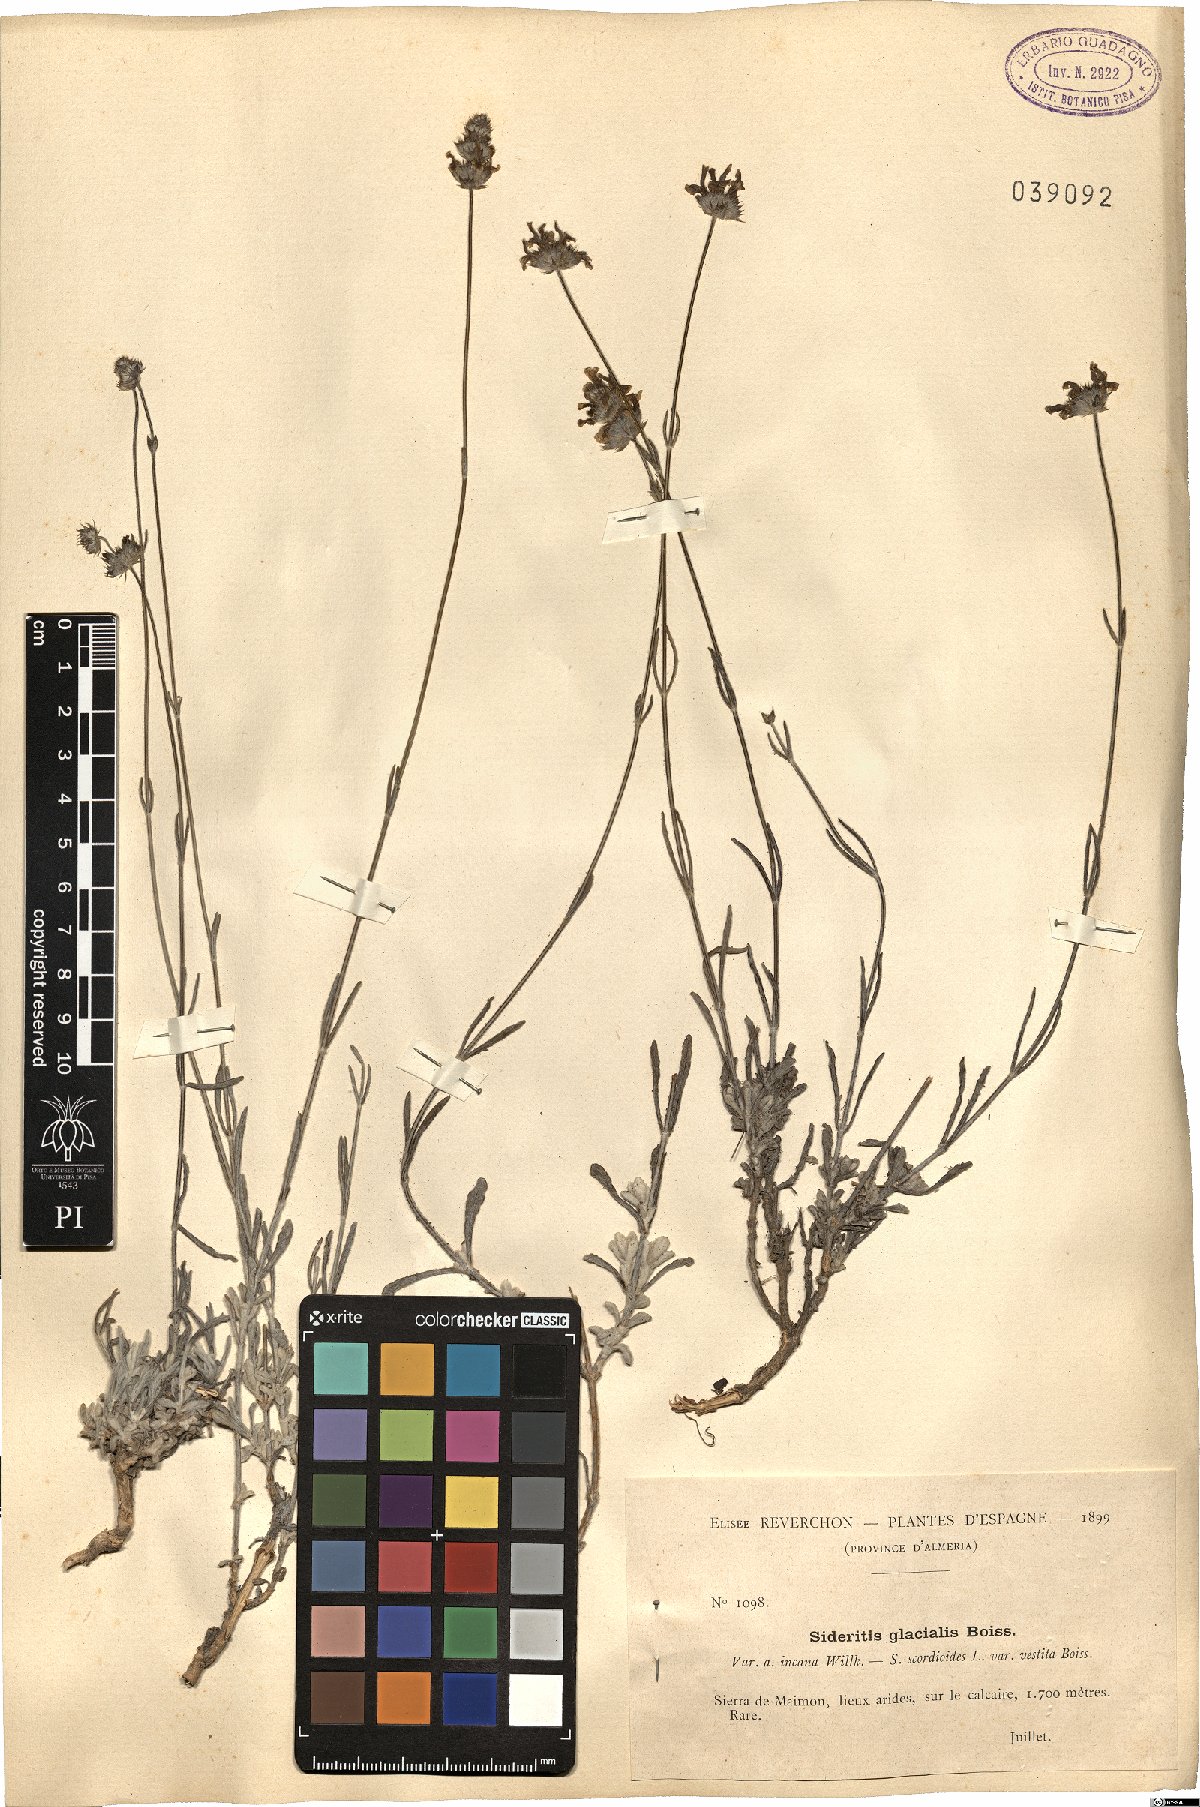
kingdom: Plantae
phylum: Tracheophyta
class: Magnoliopsida
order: Lamiales
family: Lamiaceae
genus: Sideritis
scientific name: Sideritis glacialis
